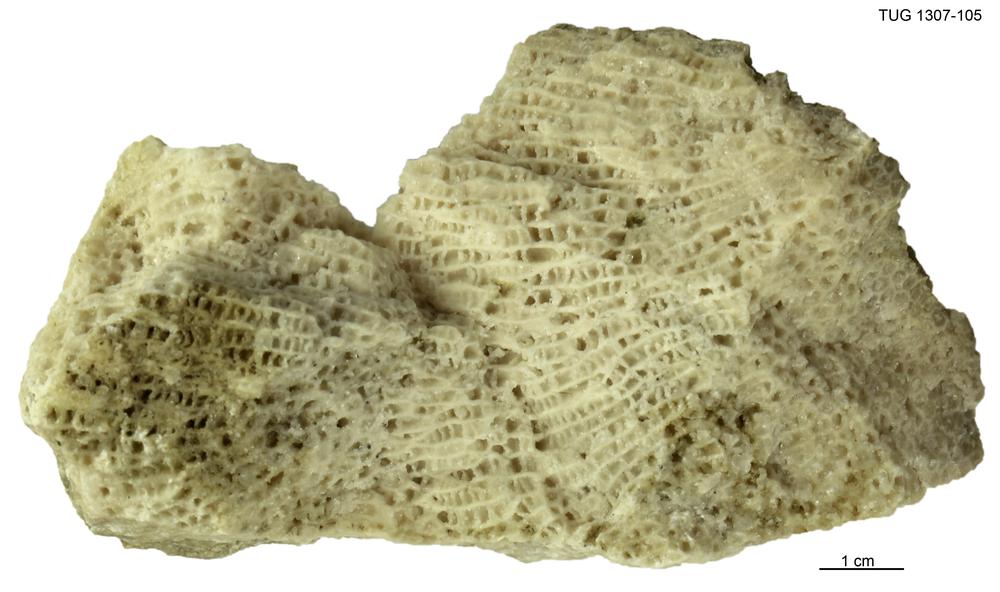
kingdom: Animalia
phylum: Cnidaria
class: Anthozoa
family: Favositidae
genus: Saffordophyllum
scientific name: Saffordophyllum
